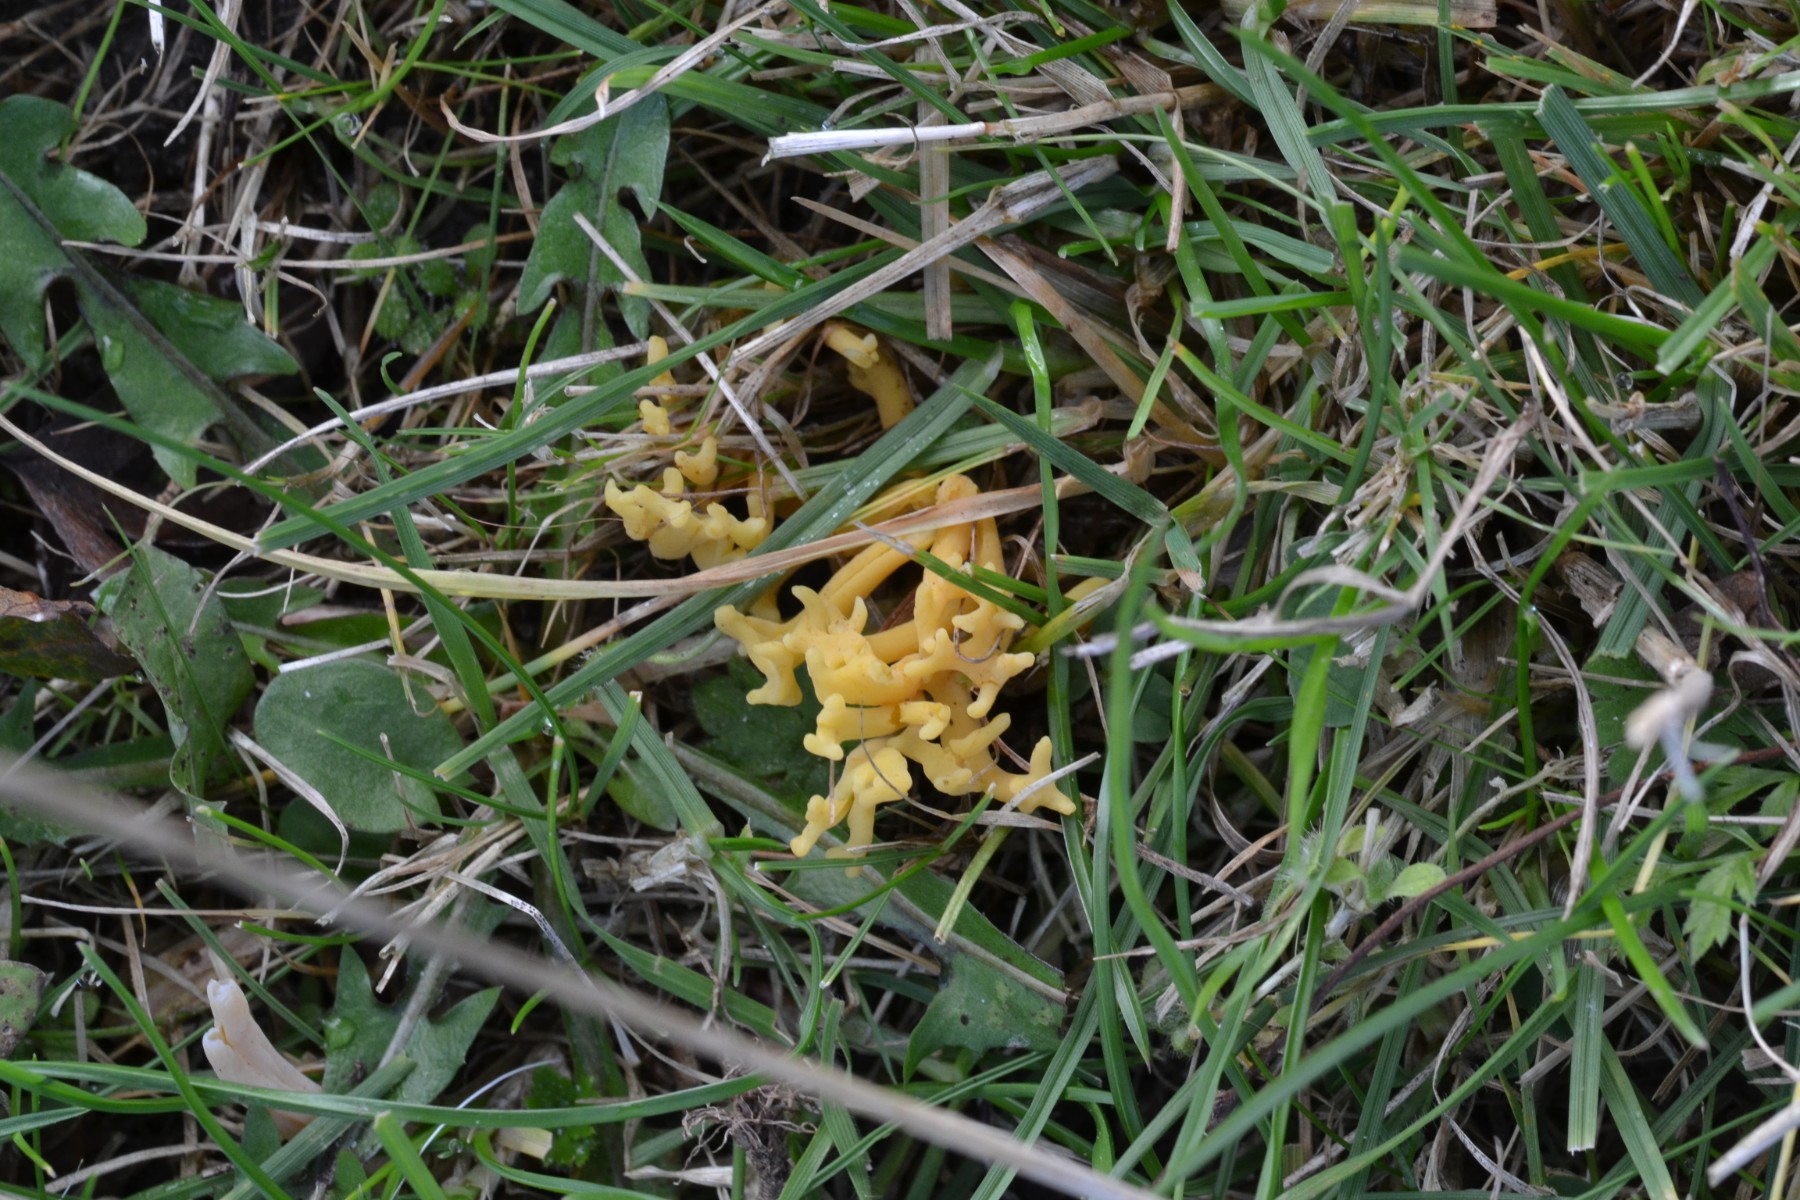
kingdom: Fungi
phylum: Basidiomycota
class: Agaricomycetes
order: Agaricales
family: Clavariaceae
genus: Clavulinopsis
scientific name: Clavulinopsis corniculata
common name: eng-køllesvamp
